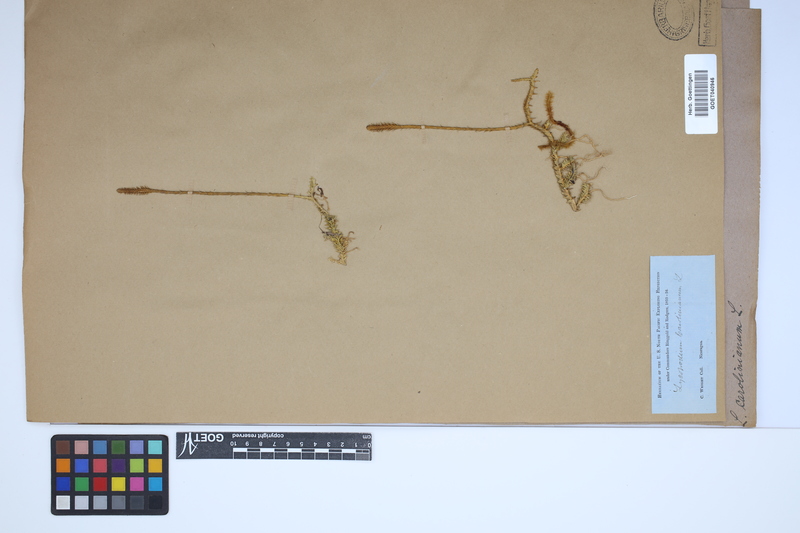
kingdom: Plantae
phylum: Tracheophyta
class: Lycopodiopsida
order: Lycopodiales
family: Lycopodiaceae
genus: Brownseya
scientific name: Brownseya serpentina
